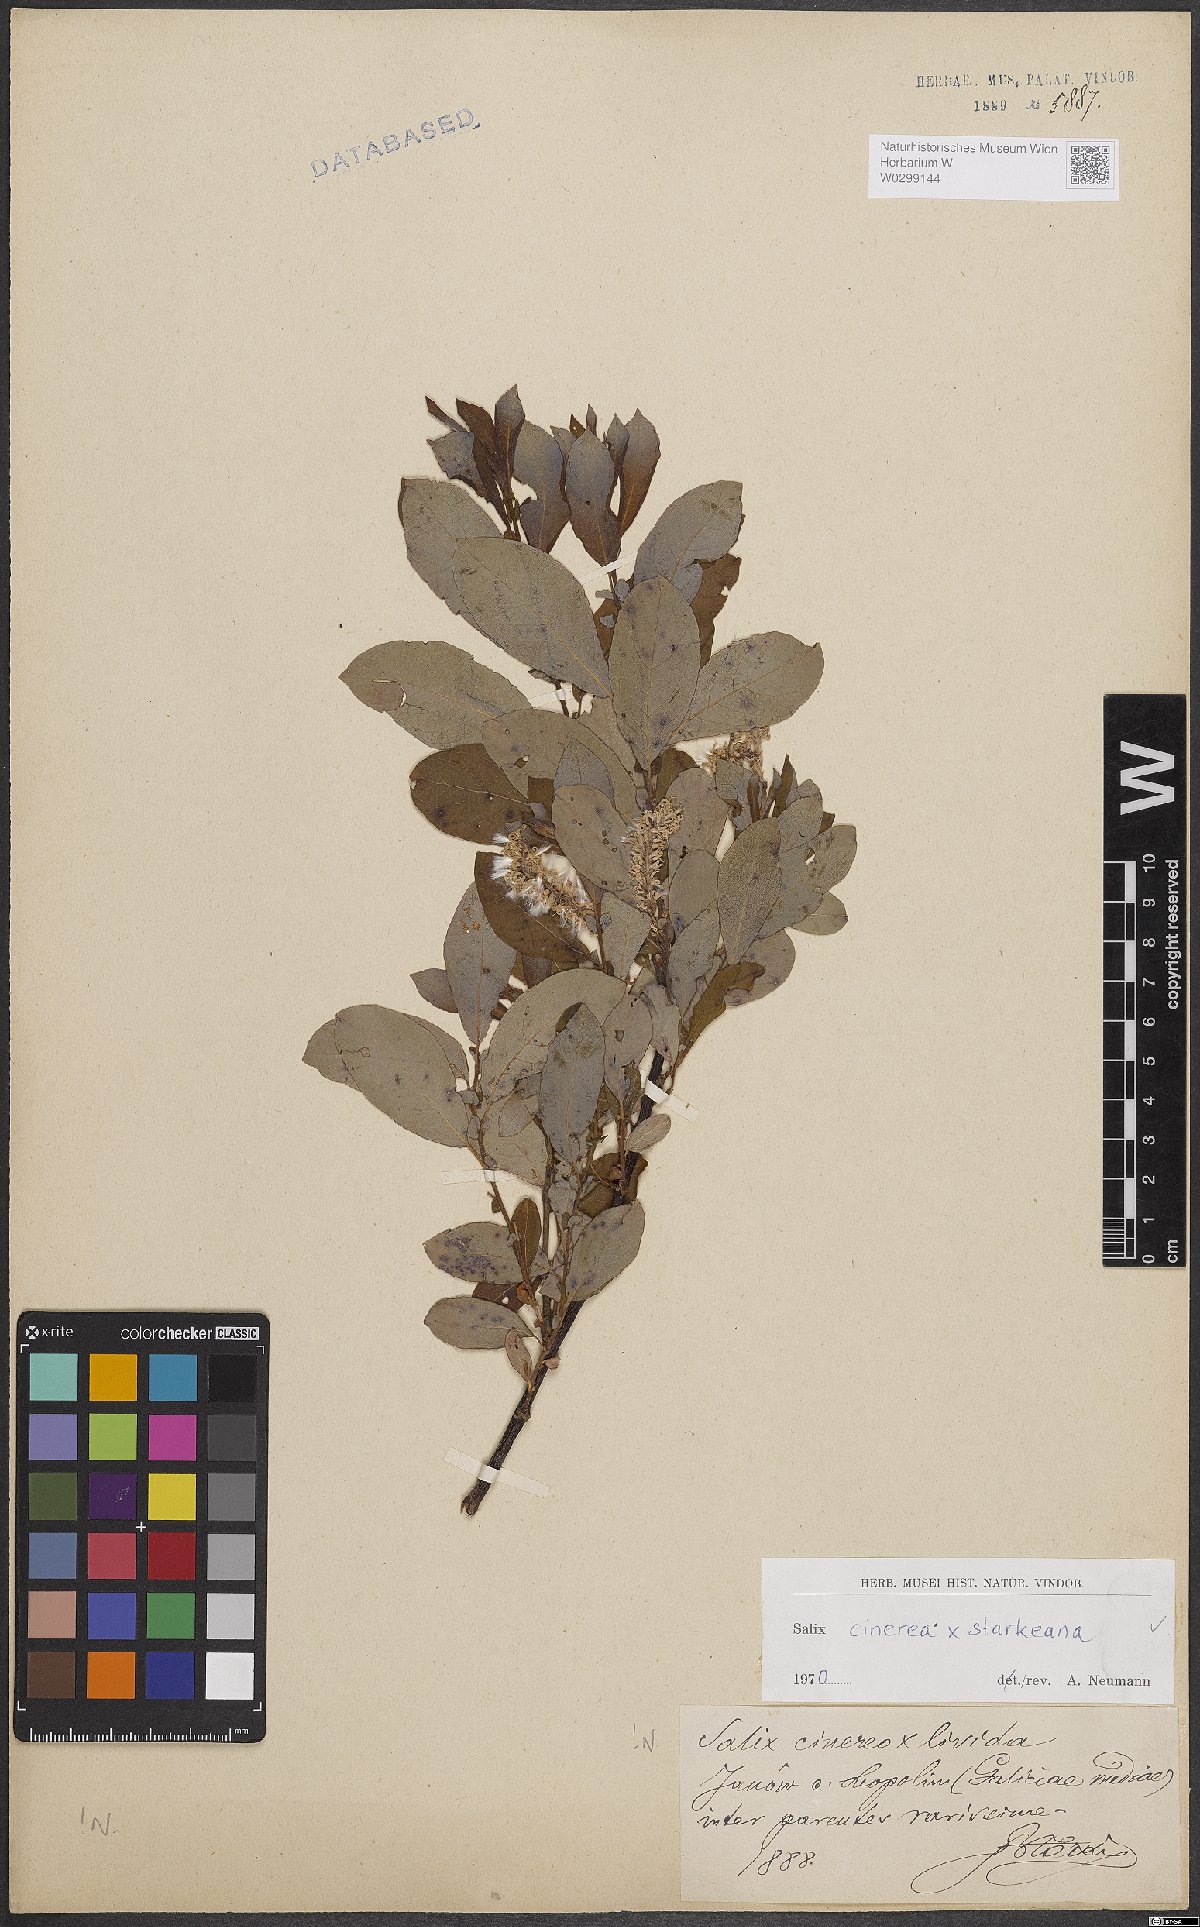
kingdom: Plantae
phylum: Tracheophyta
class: Magnoliopsida
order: Malpighiales
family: Salicaceae
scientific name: Salicaceae
